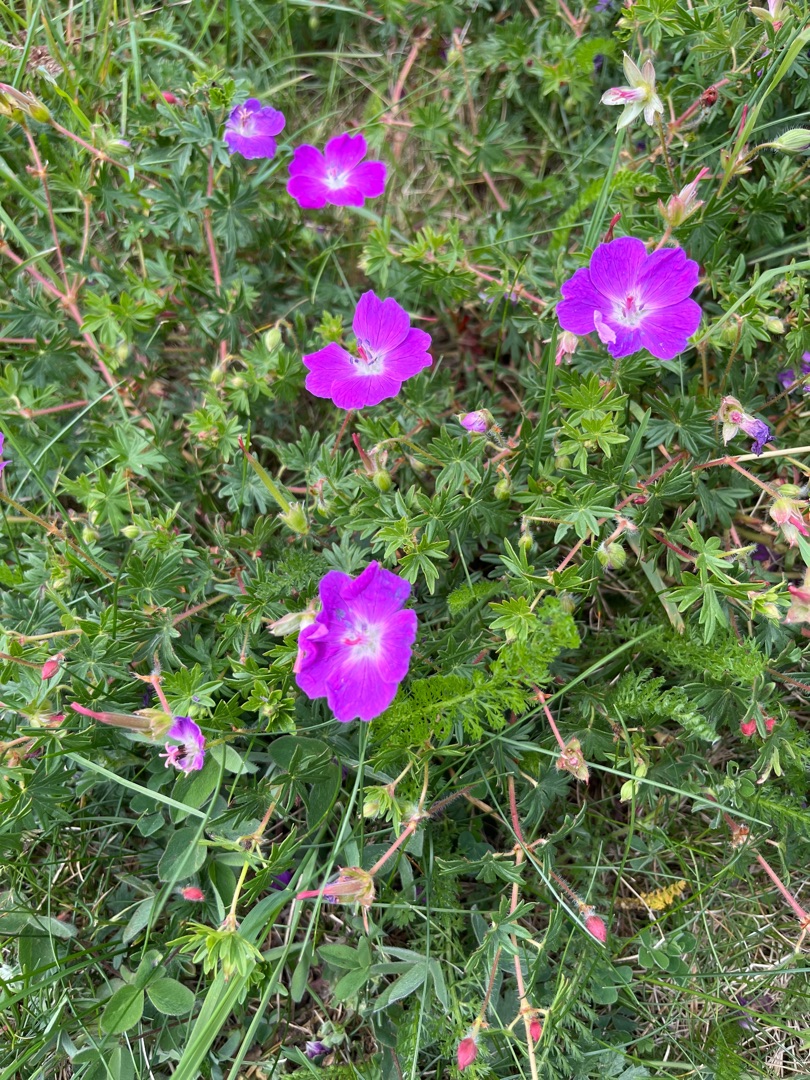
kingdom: Plantae
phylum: Tracheophyta
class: Magnoliopsida
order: Geraniales
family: Geraniaceae
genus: Geranium
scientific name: Geranium sanguineum
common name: Blodrød storkenæb
